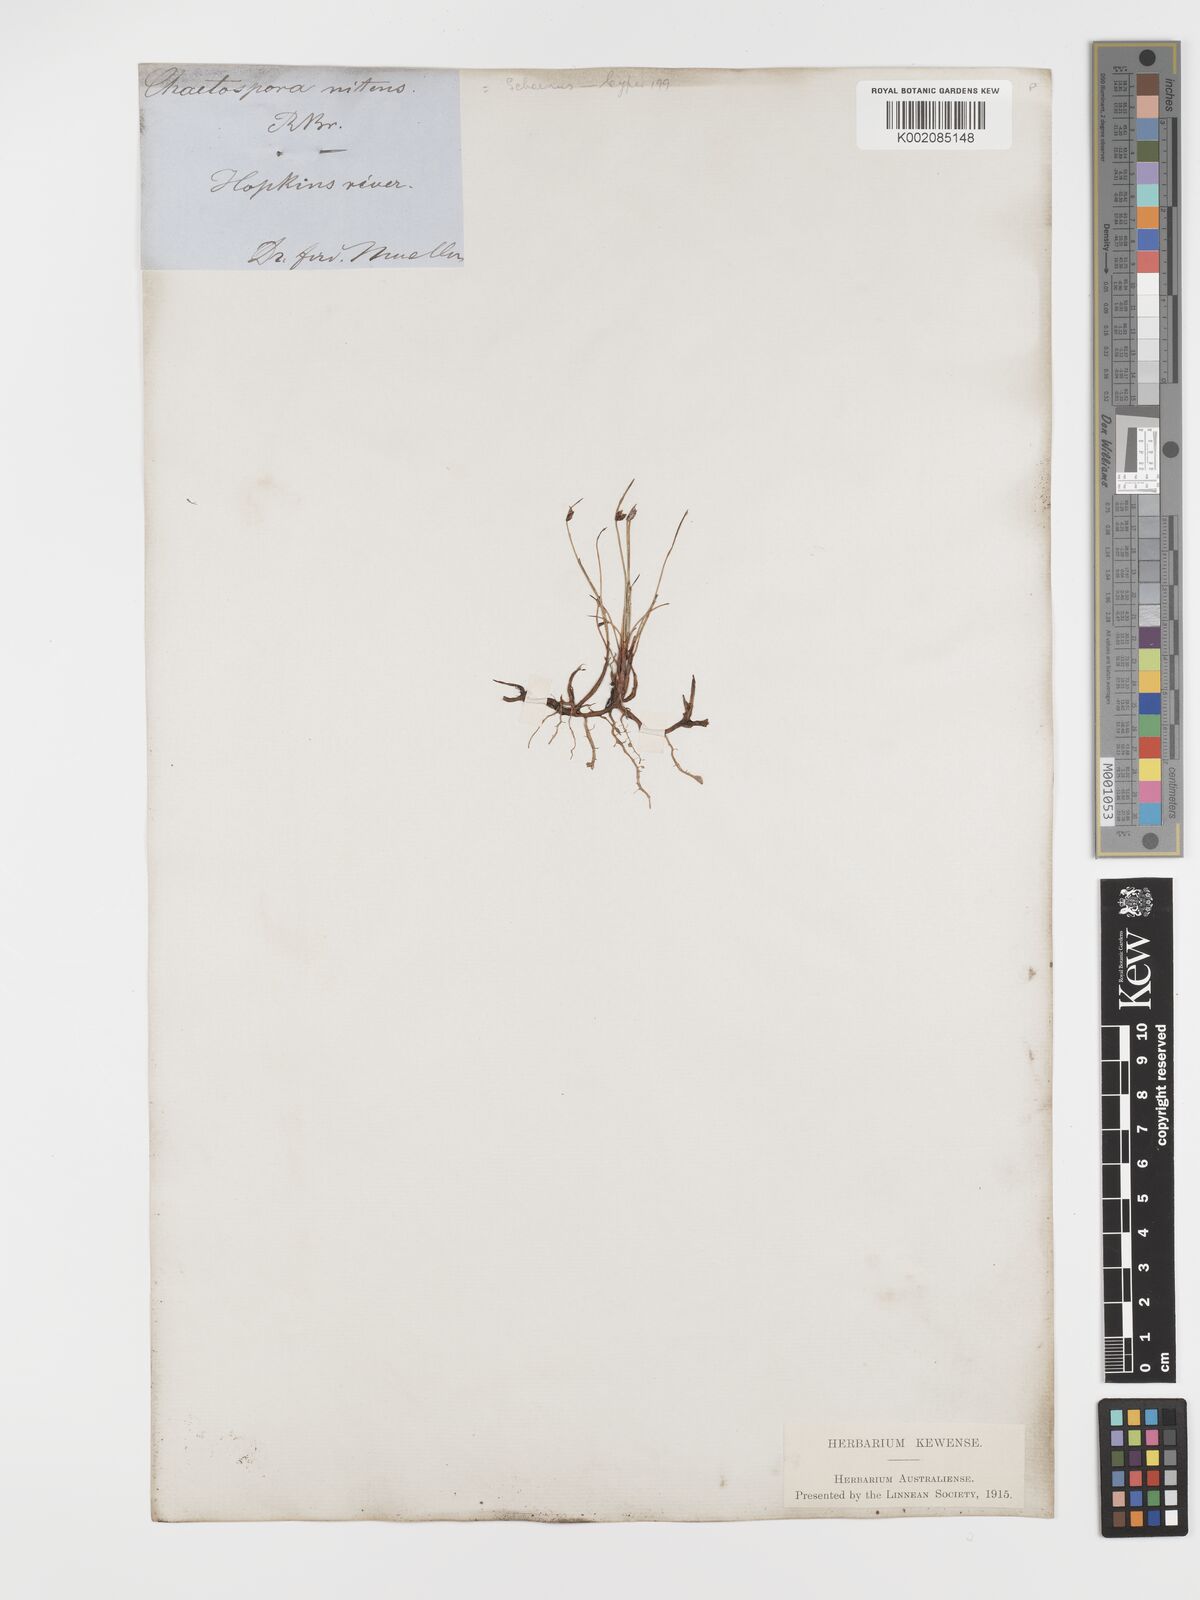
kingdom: Plantae
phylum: Tracheophyta
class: Liliopsida
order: Poales
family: Cyperaceae
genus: Schoenus
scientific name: Schoenus nitens
